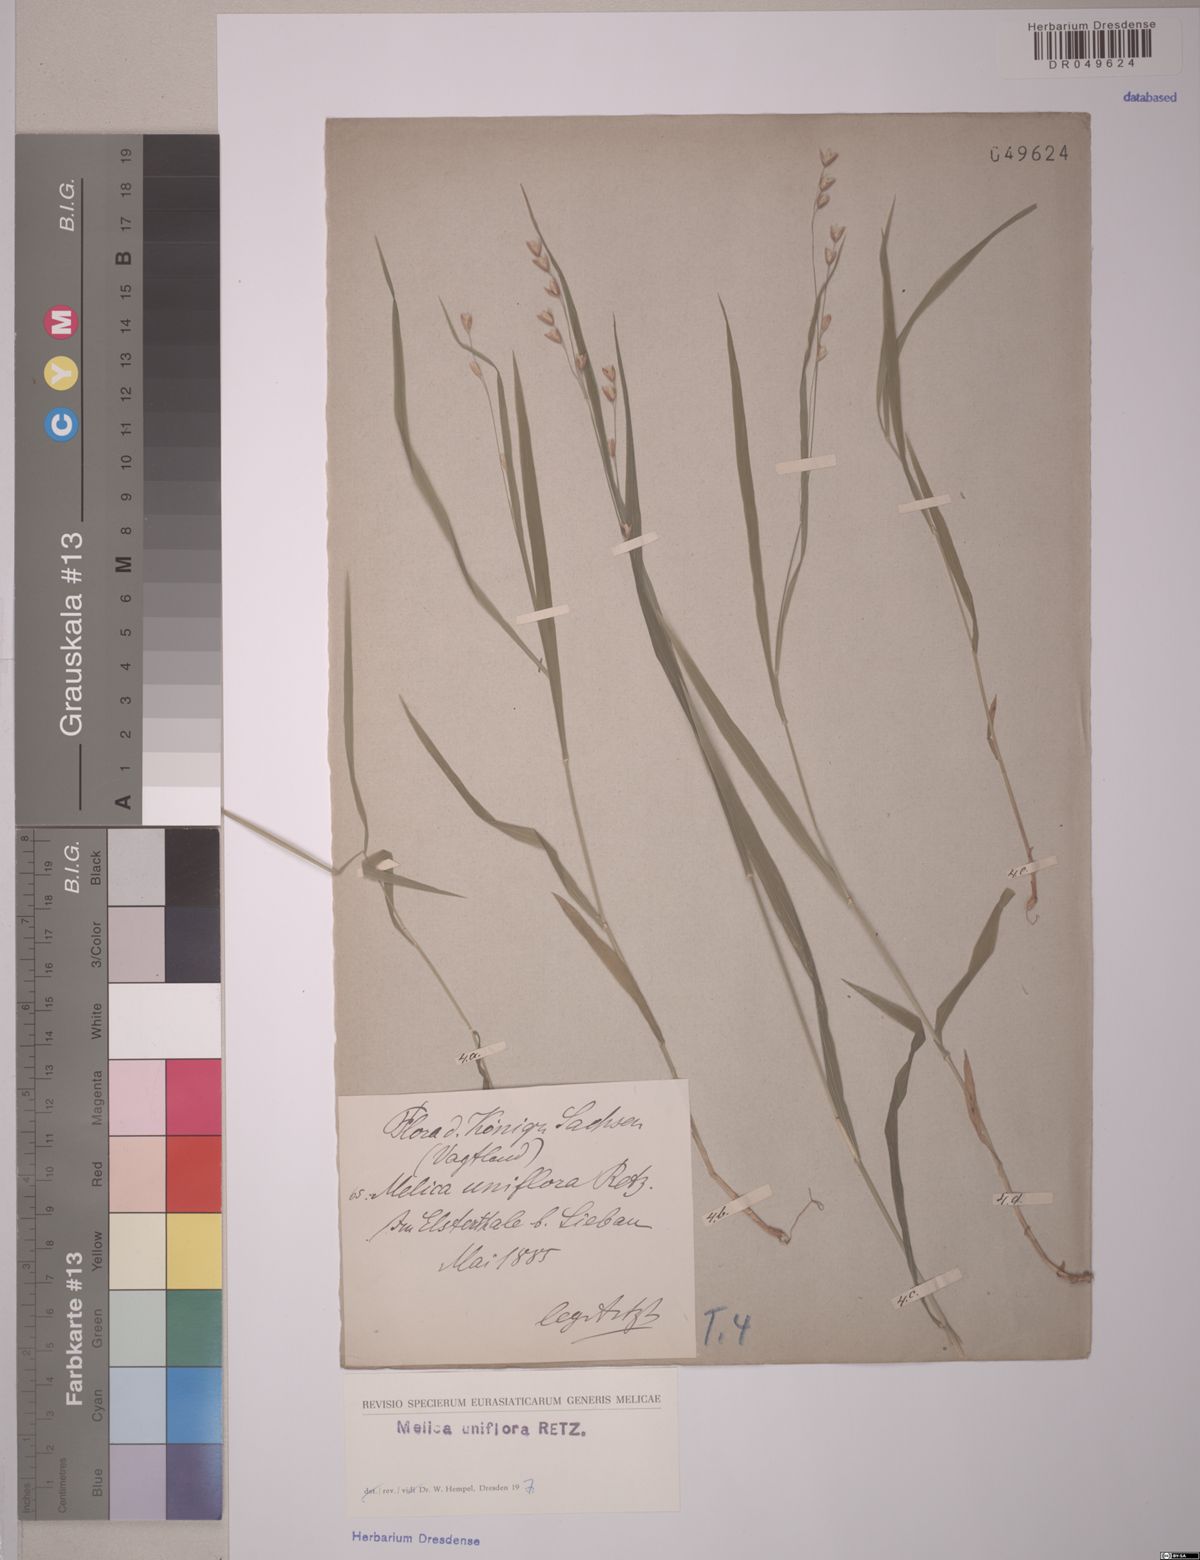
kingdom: Plantae
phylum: Tracheophyta
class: Liliopsida
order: Poales
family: Poaceae
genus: Melica
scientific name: Melica uniflora
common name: Wood melick
